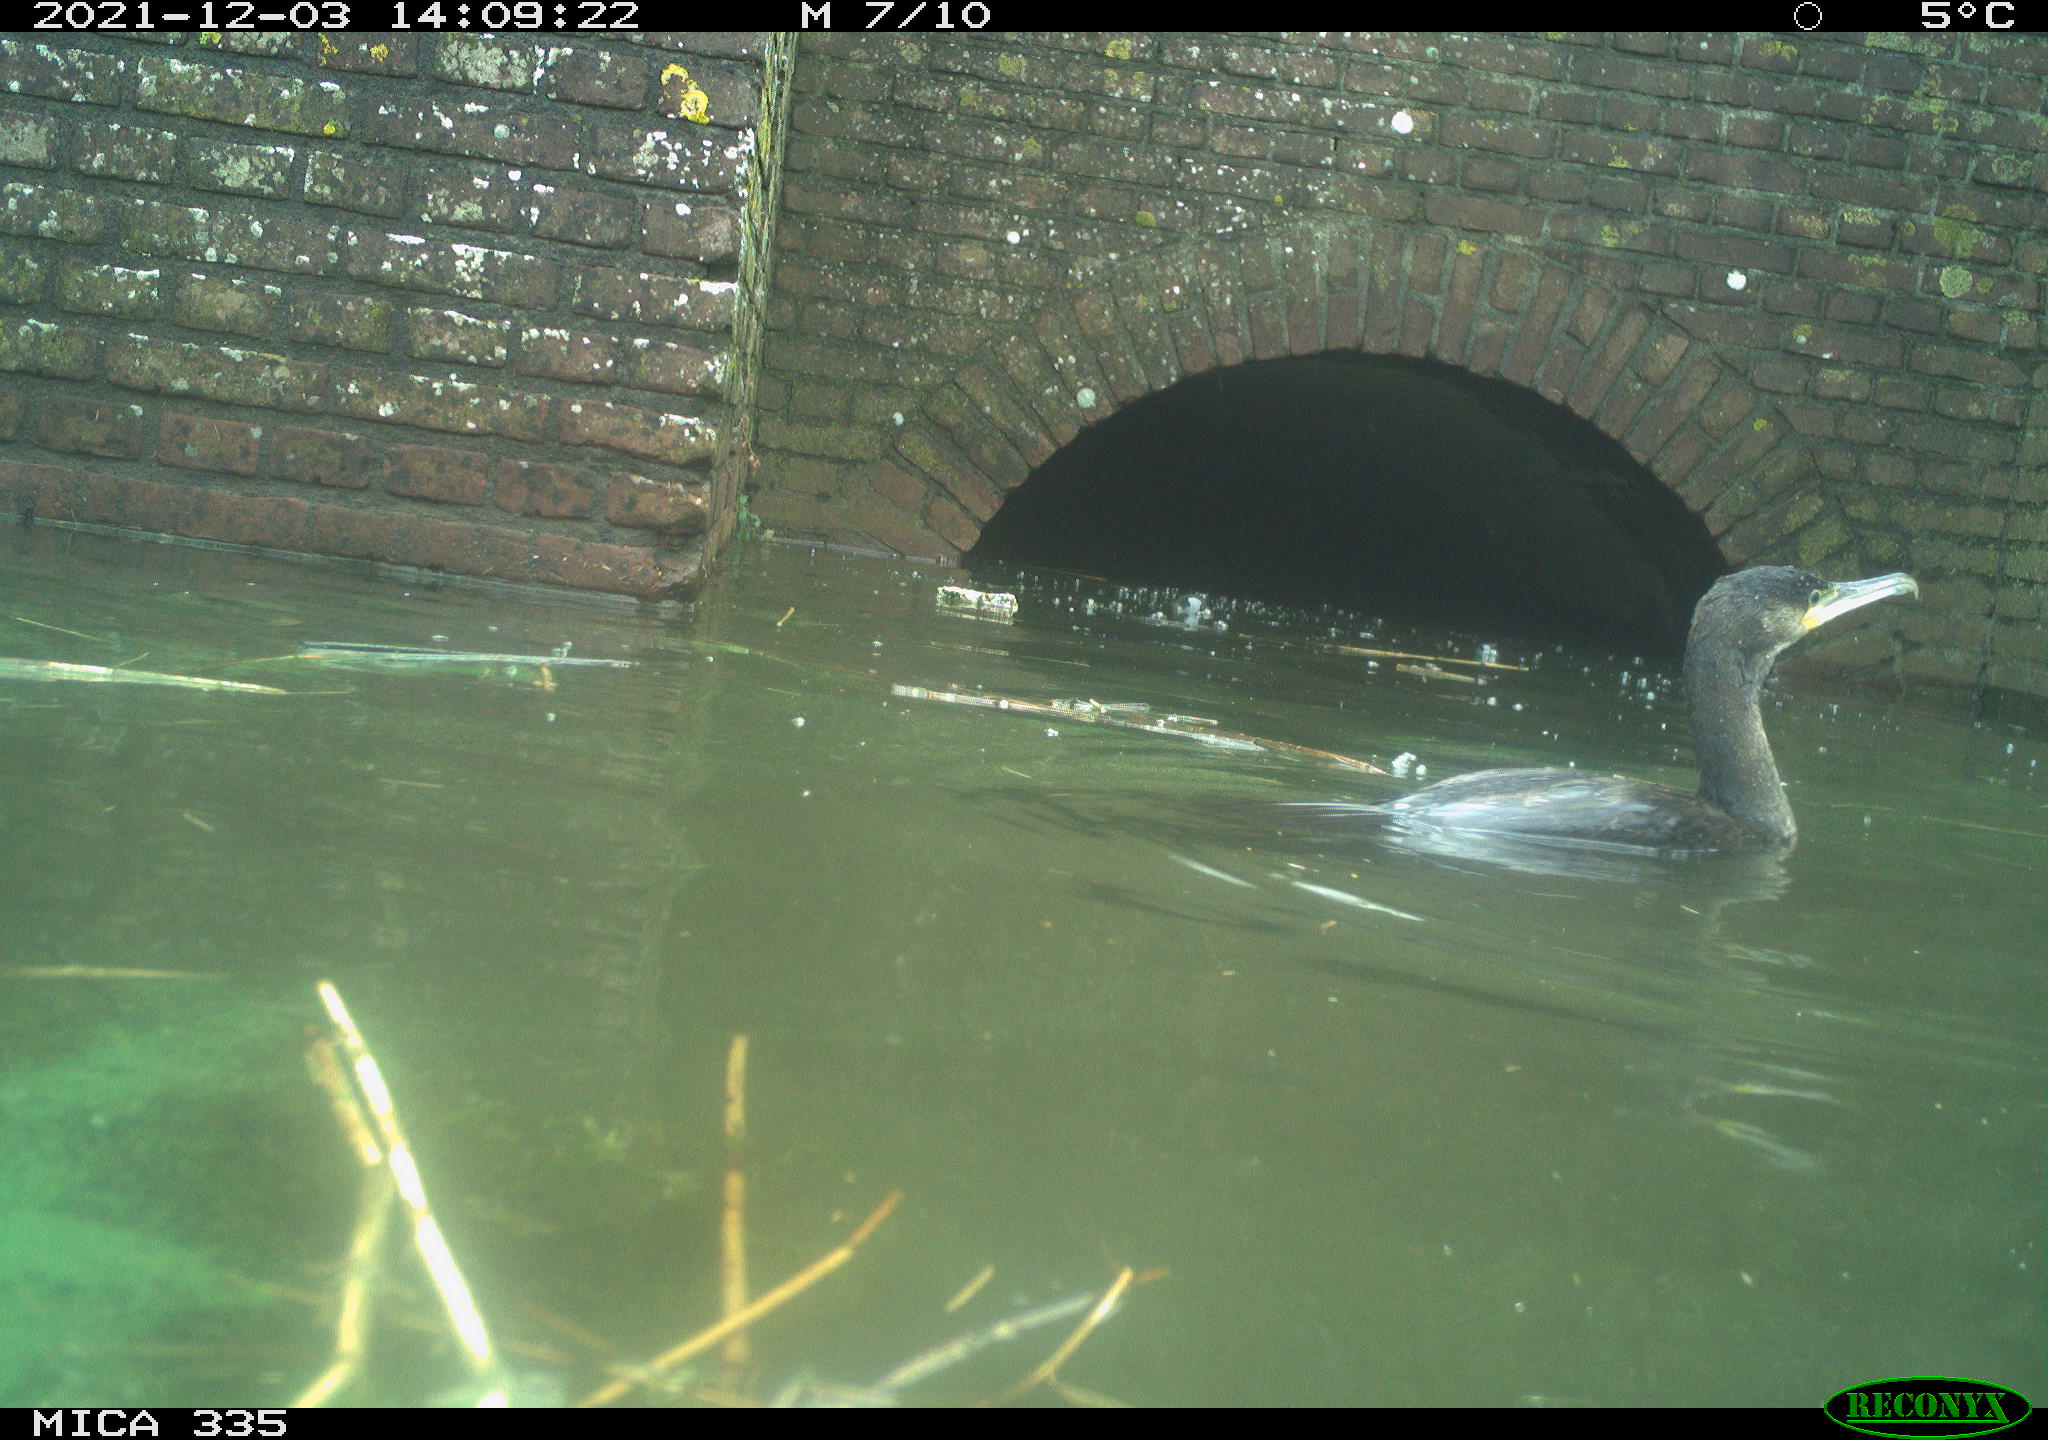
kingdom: Animalia
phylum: Chordata
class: Aves
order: Suliformes
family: Phalacrocoracidae
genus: Phalacrocorax
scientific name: Phalacrocorax carbo
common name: Great cormorant
